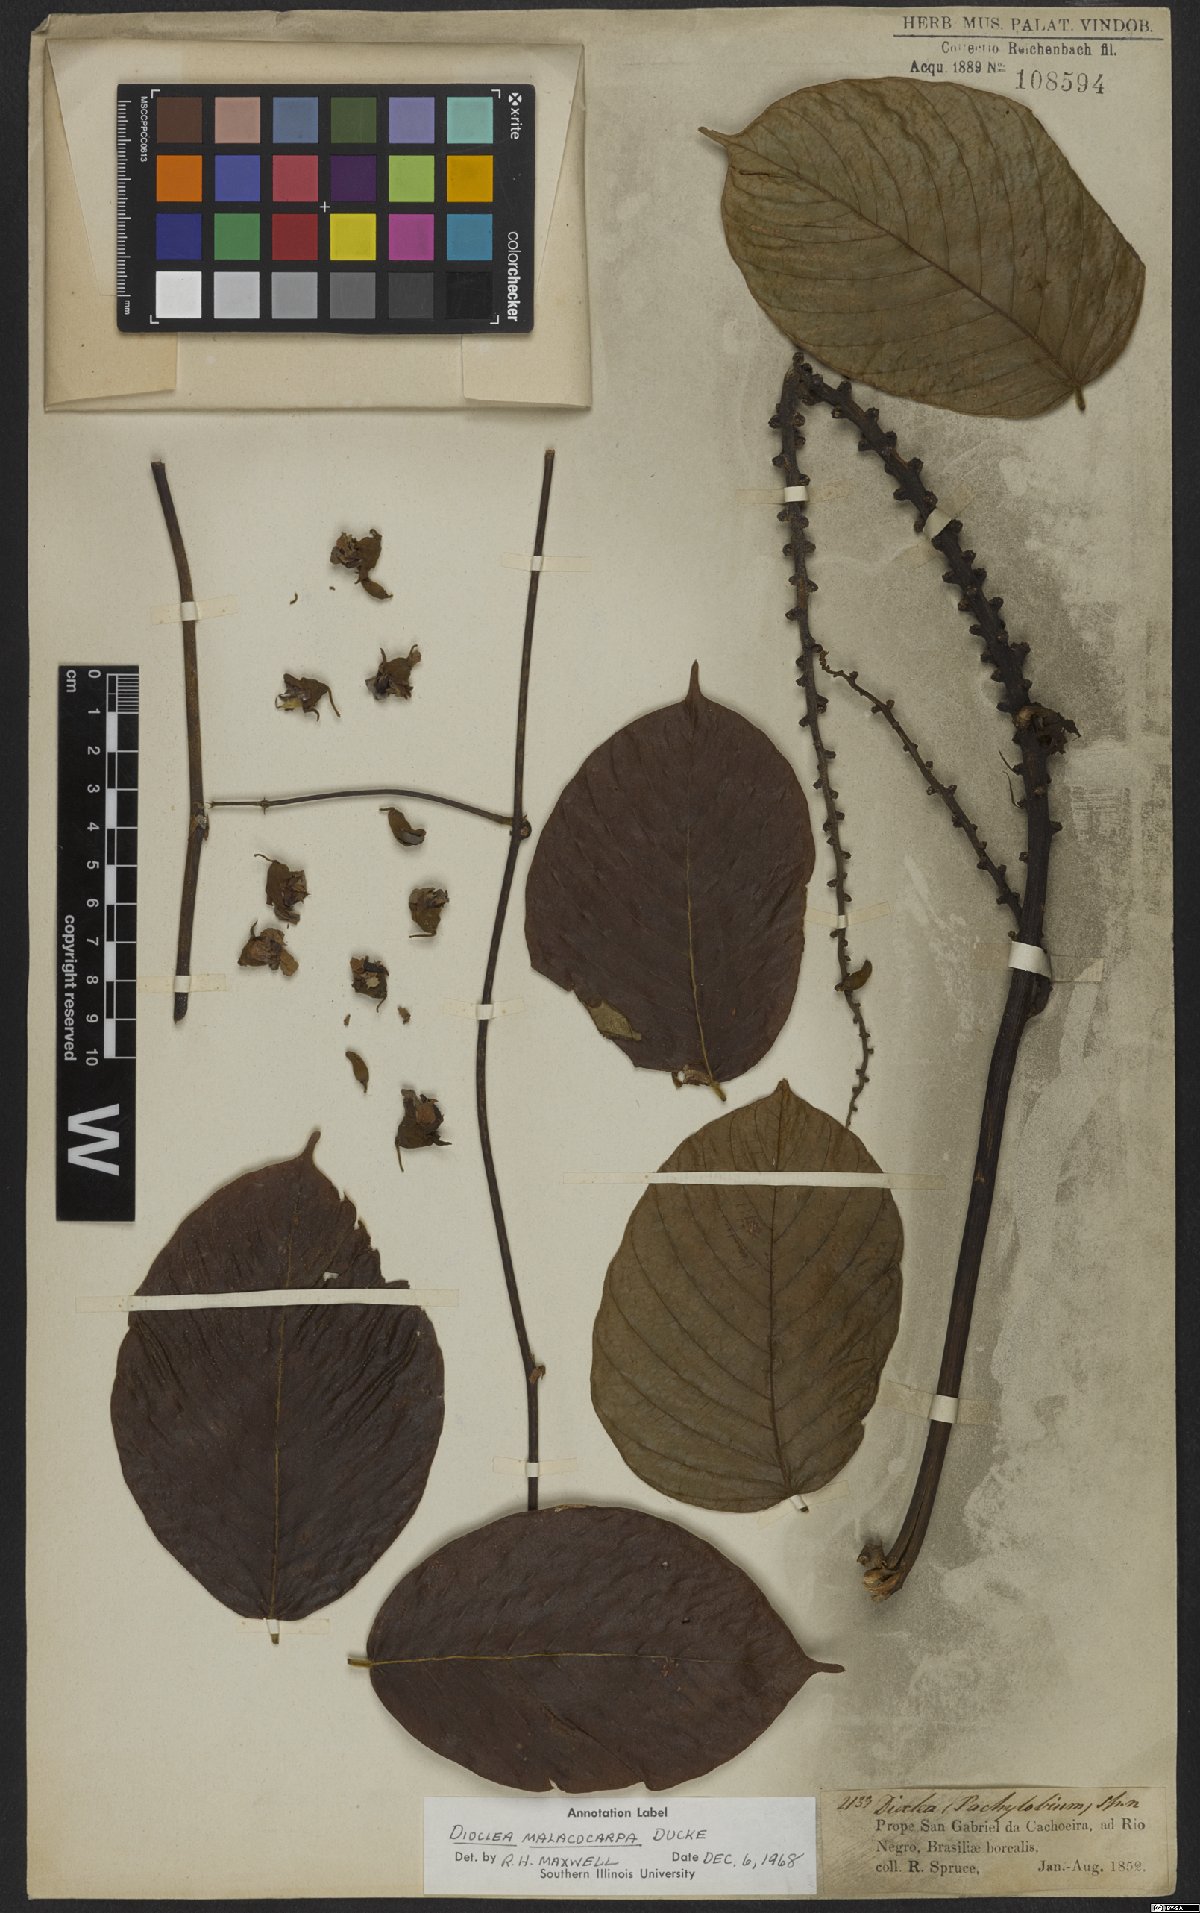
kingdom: Plantae
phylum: Tracheophyta
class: Magnoliopsida
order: Fabales
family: Fabaceae
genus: Macropsychanthus
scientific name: Macropsychanthus malacocarpus
